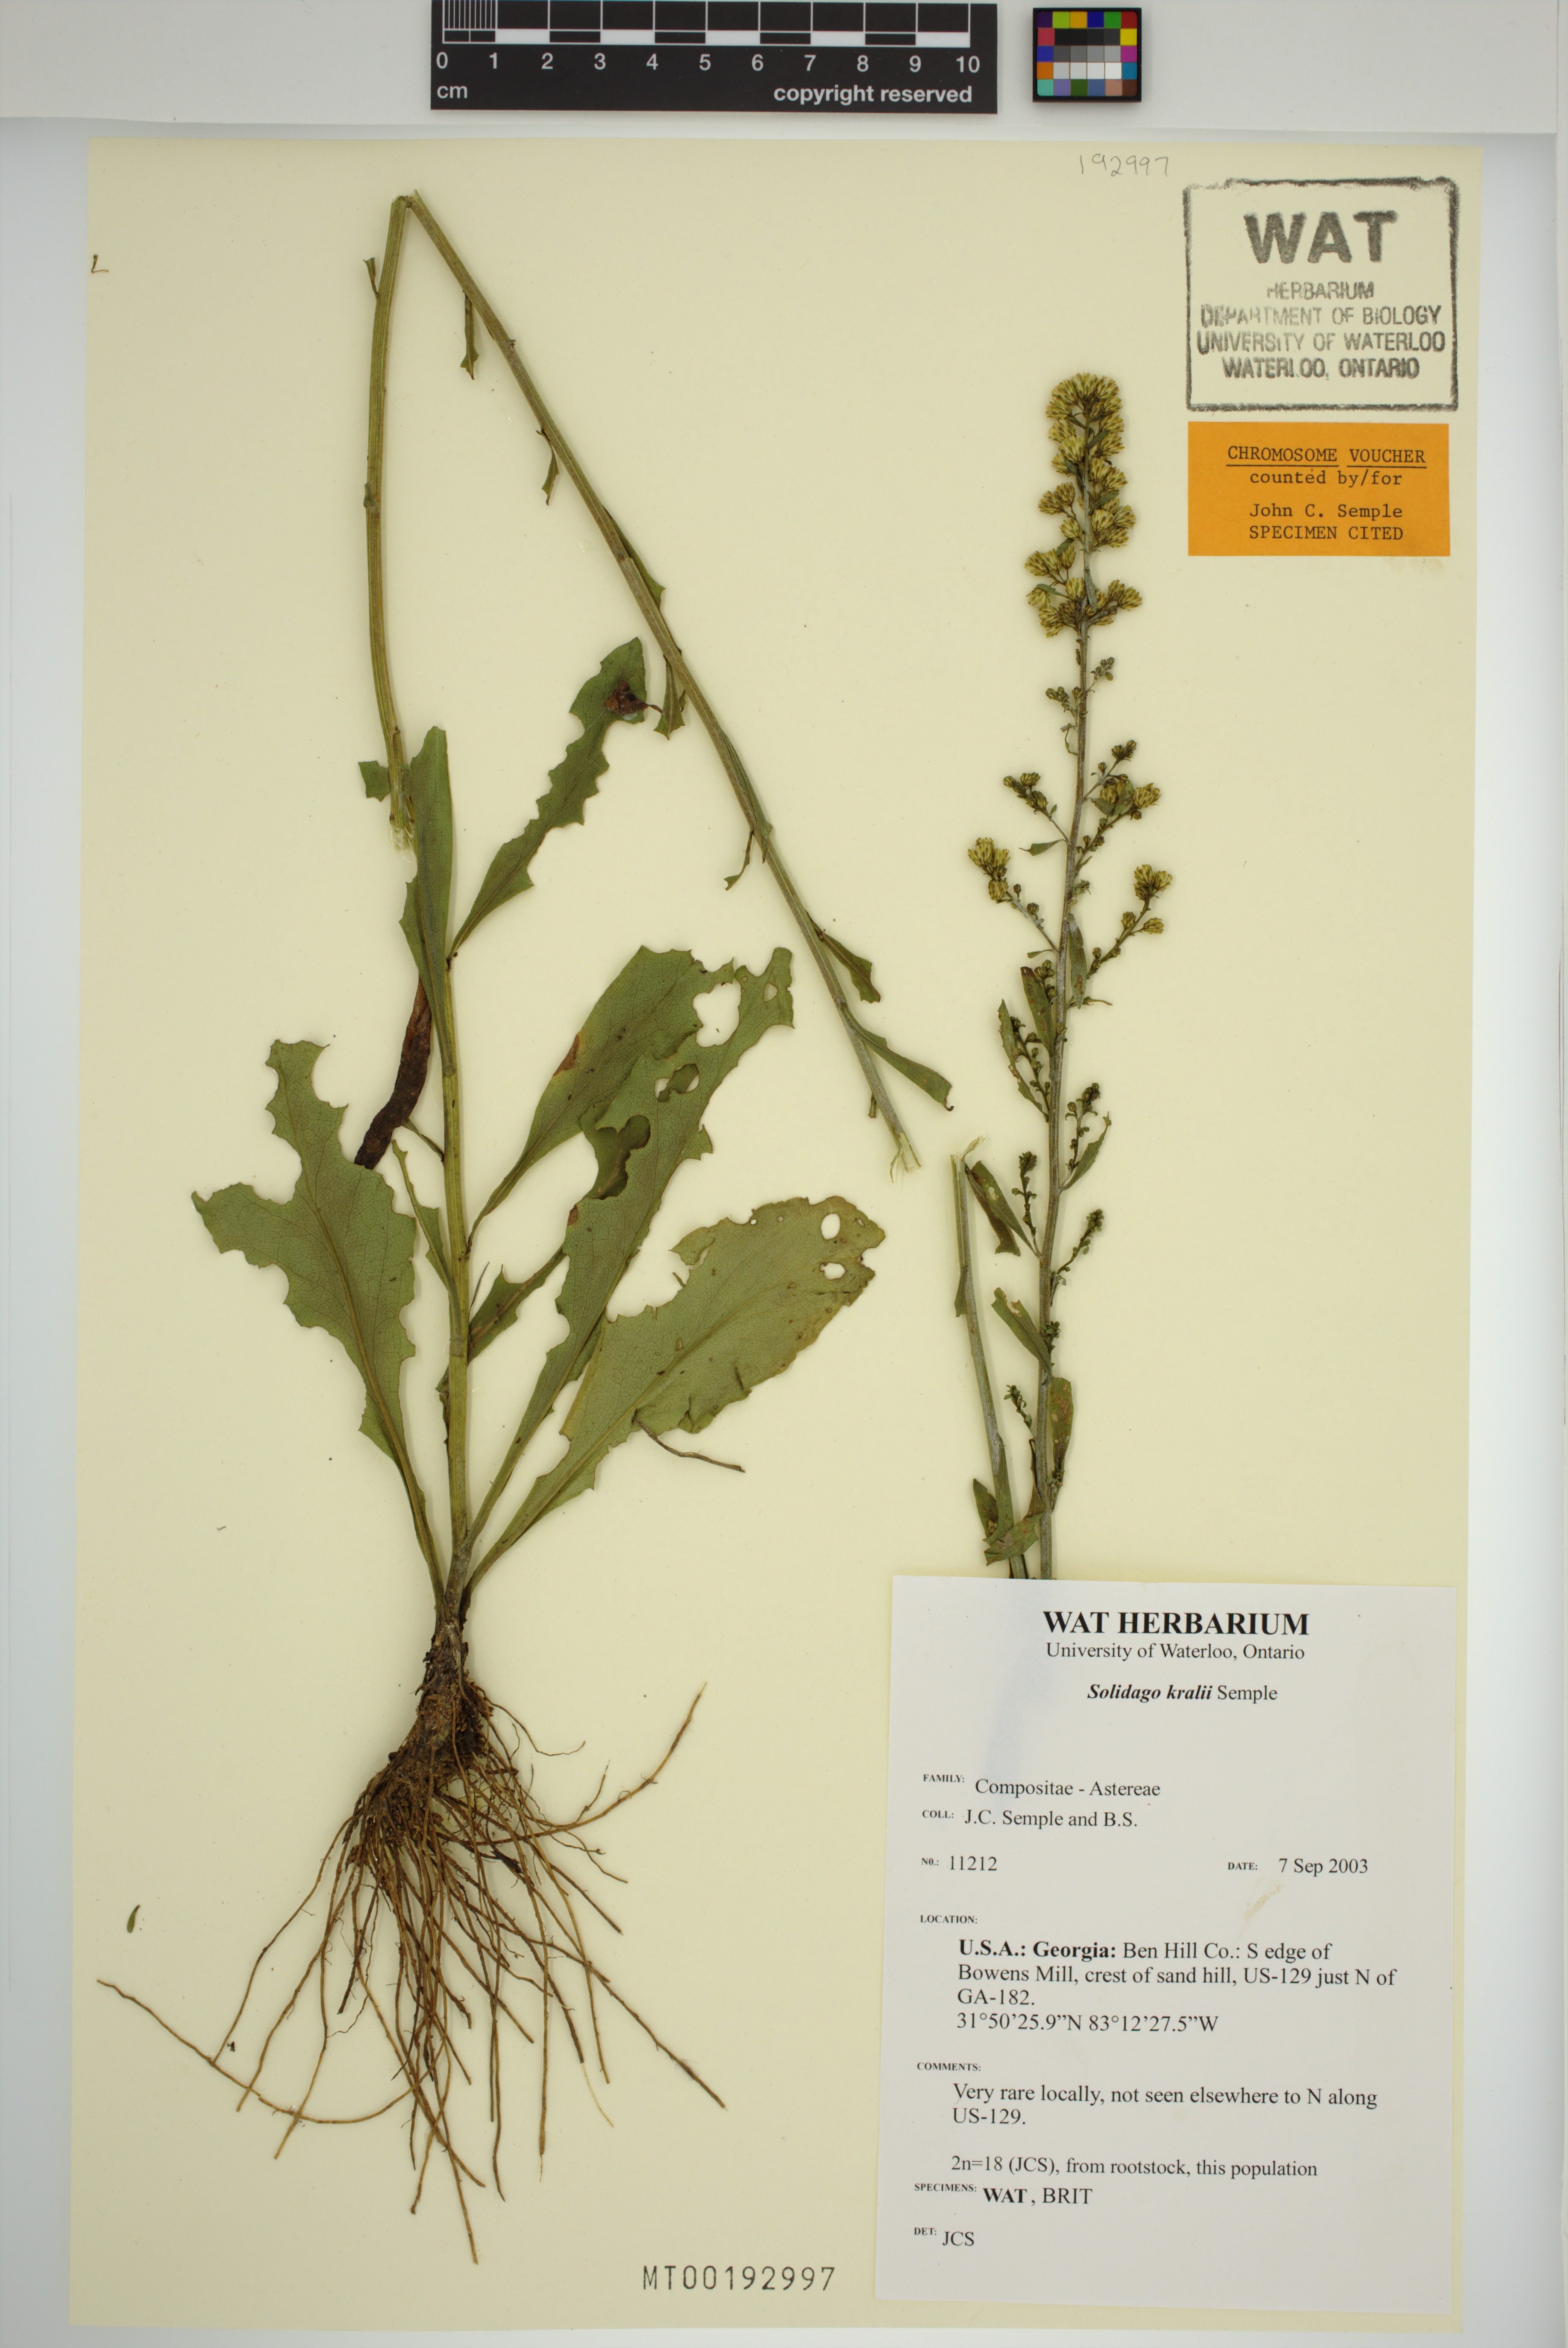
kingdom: Plantae
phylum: Tracheophyta
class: Magnoliopsida
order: Asterales
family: Asteraceae
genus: Solidago
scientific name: Solidago kralii
